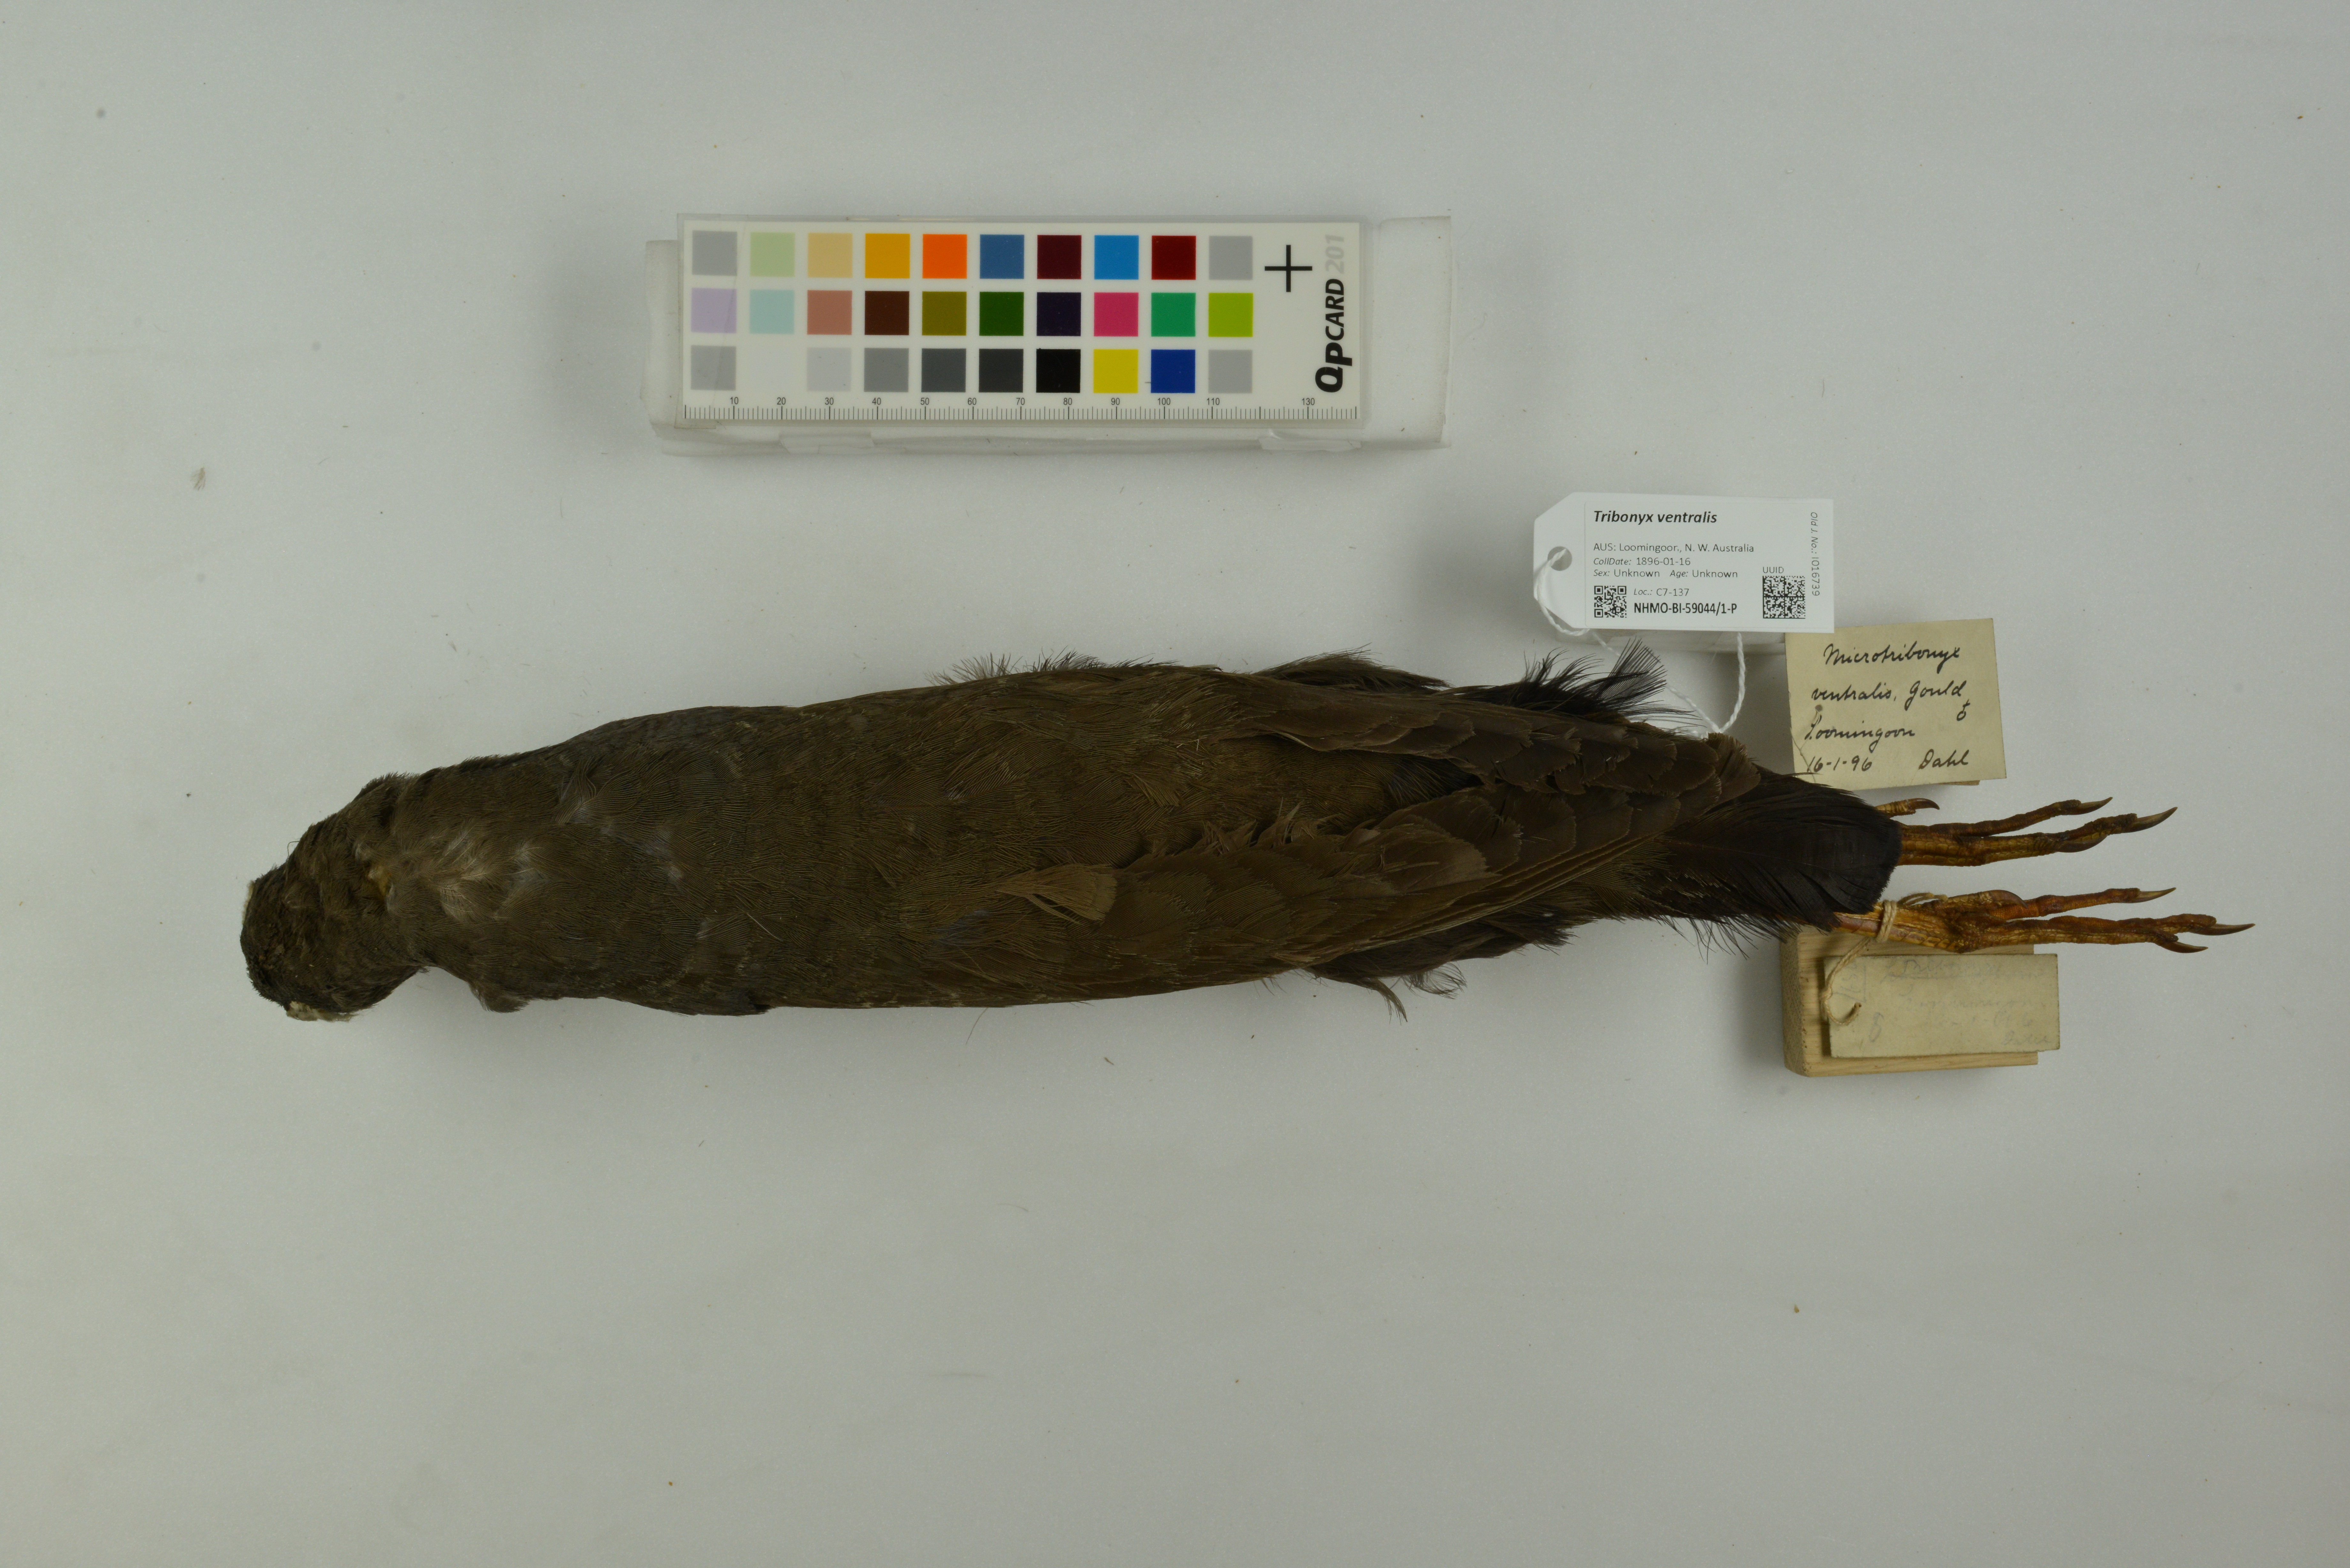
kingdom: Animalia
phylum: Chordata
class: Aves
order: Gruiformes
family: Rallidae
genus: Gallinula
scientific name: Gallinula ventralis
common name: Black-tailed nativehen
